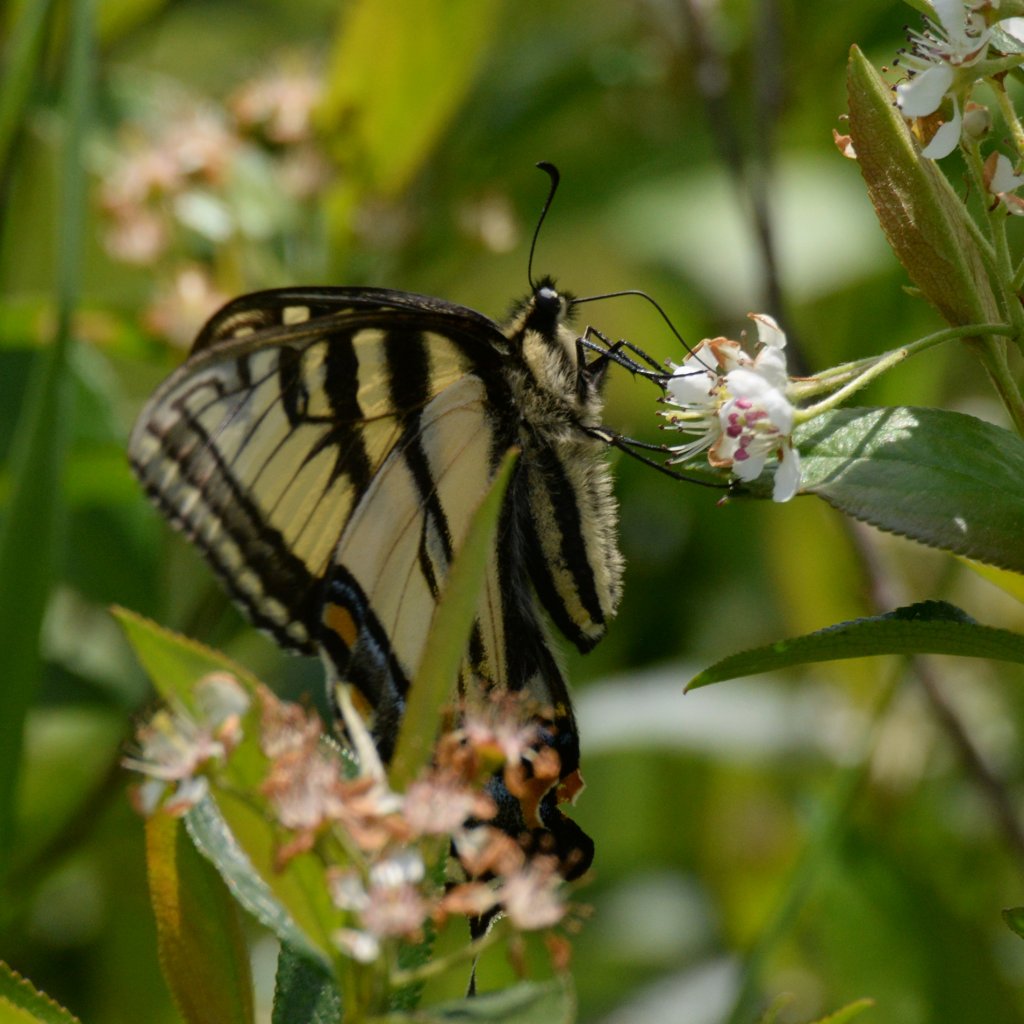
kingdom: Animalia
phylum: Arthropoda
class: Insecta
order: Lepidoptera
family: Papilionidae
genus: Pterourus
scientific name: Pterourus canadensis
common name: Canadian Tiger Swallowtail
